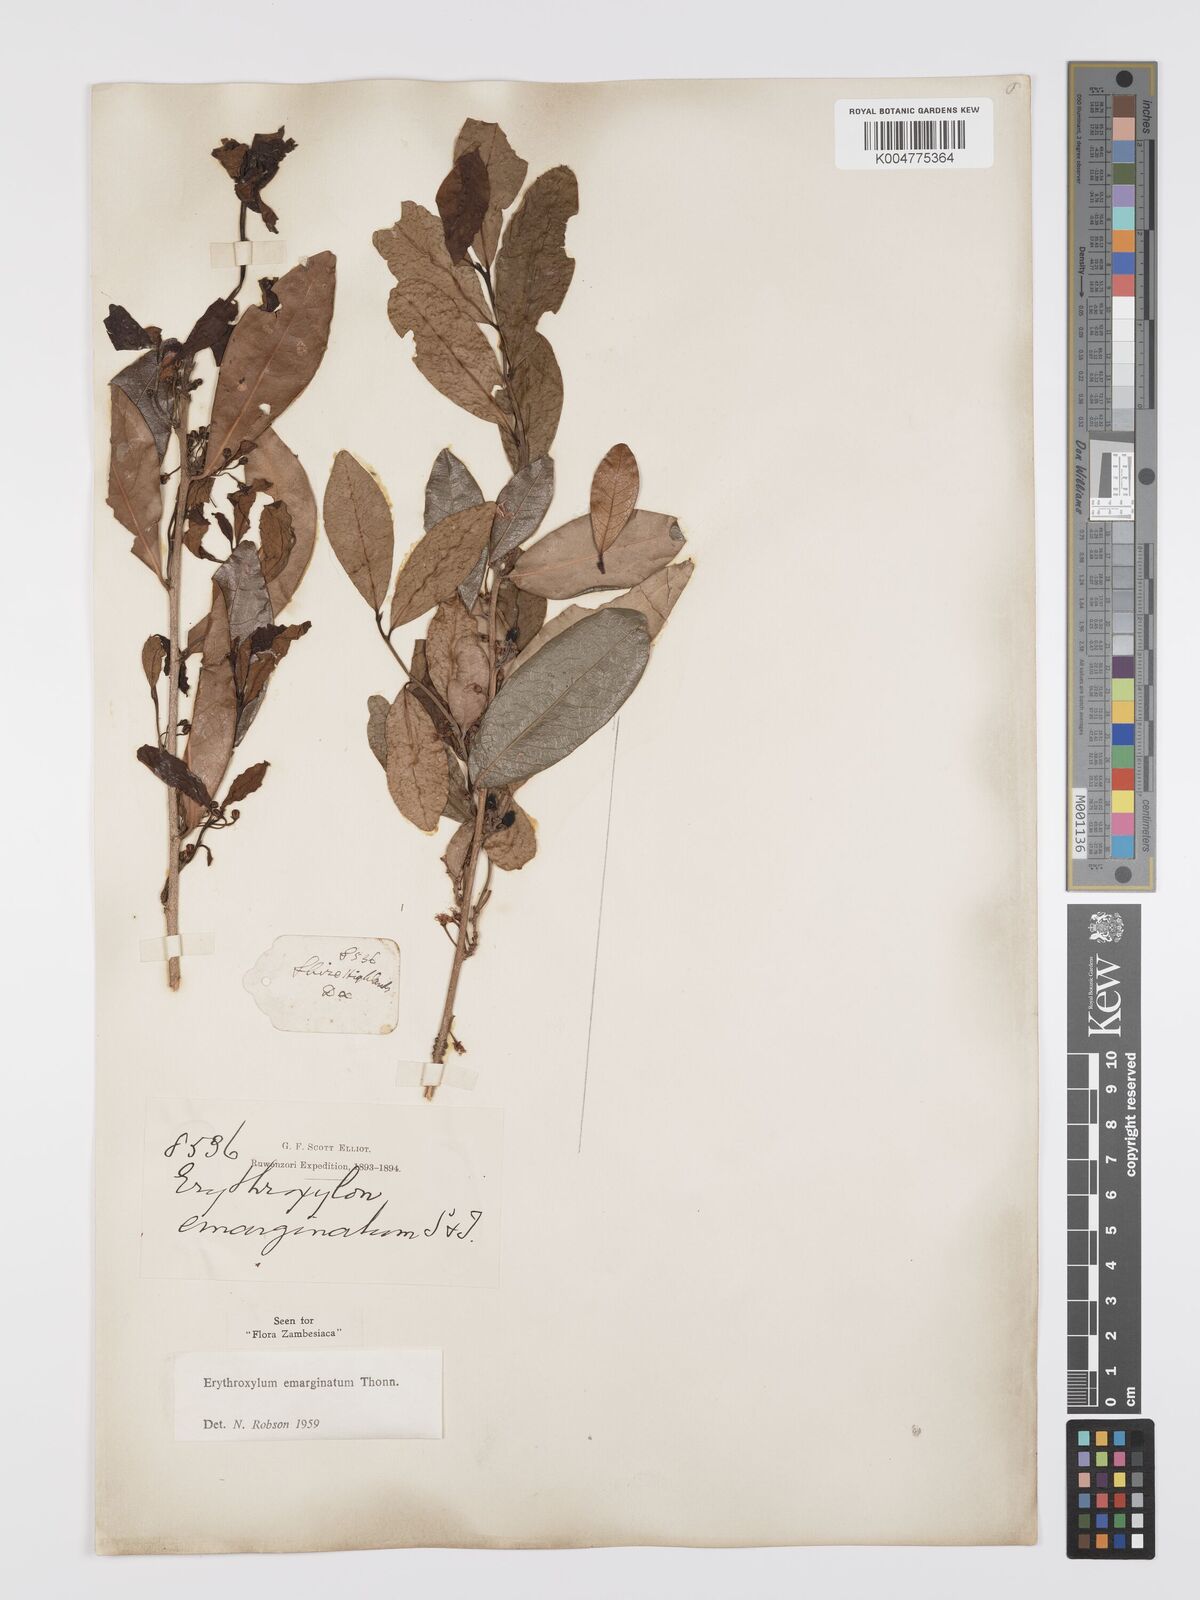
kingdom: Plantae
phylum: Tracheophyta
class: Magnoliopsida
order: Malpighiales
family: Erythroxylaceae
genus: Erythroxylum
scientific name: Erythroxylum emarginatum
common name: African coca-tree
